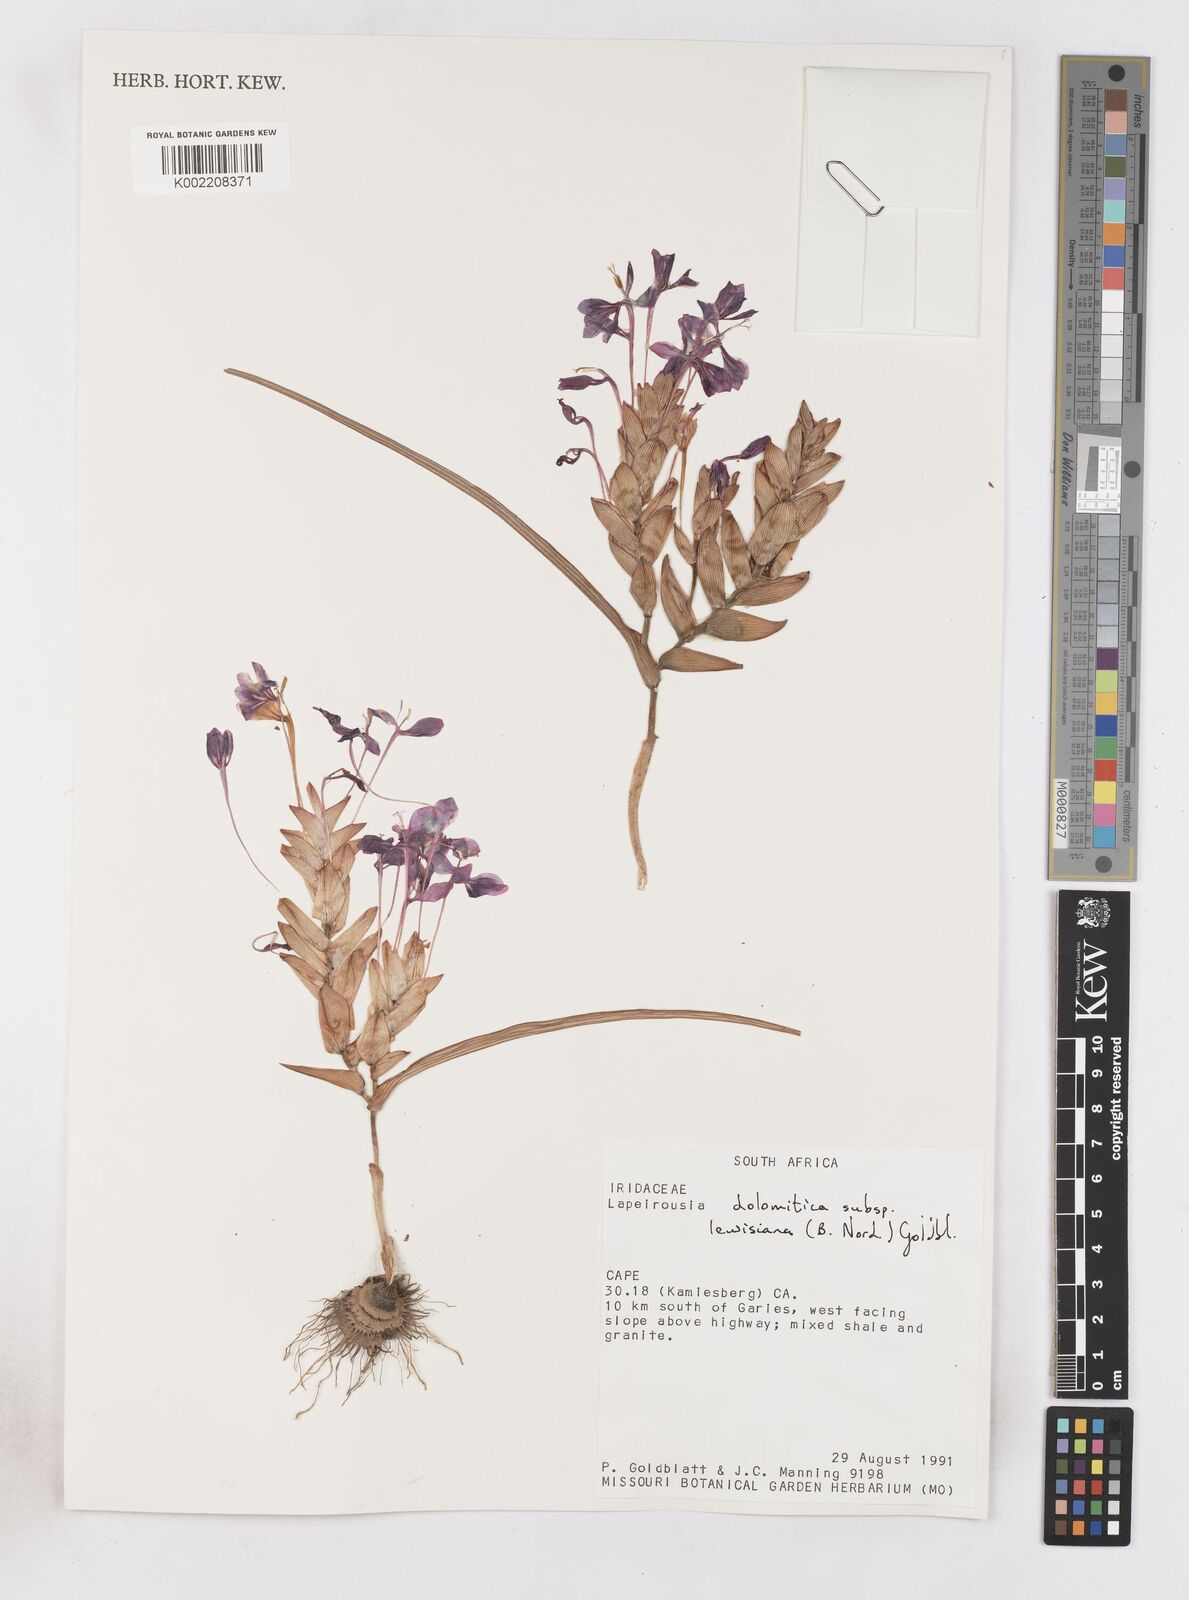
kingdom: Plantae
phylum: Tracheophyta
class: Liliopsida
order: Asparagales
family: Iridaceae
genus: Lapeirousia
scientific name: Lapeirousia lewisiana
